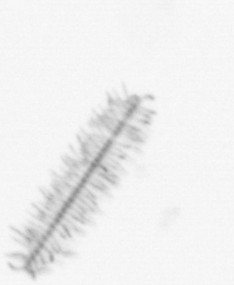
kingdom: Chromista
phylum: Ochrophyta
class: Bacillariophyceae
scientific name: Bacillariophyceae
